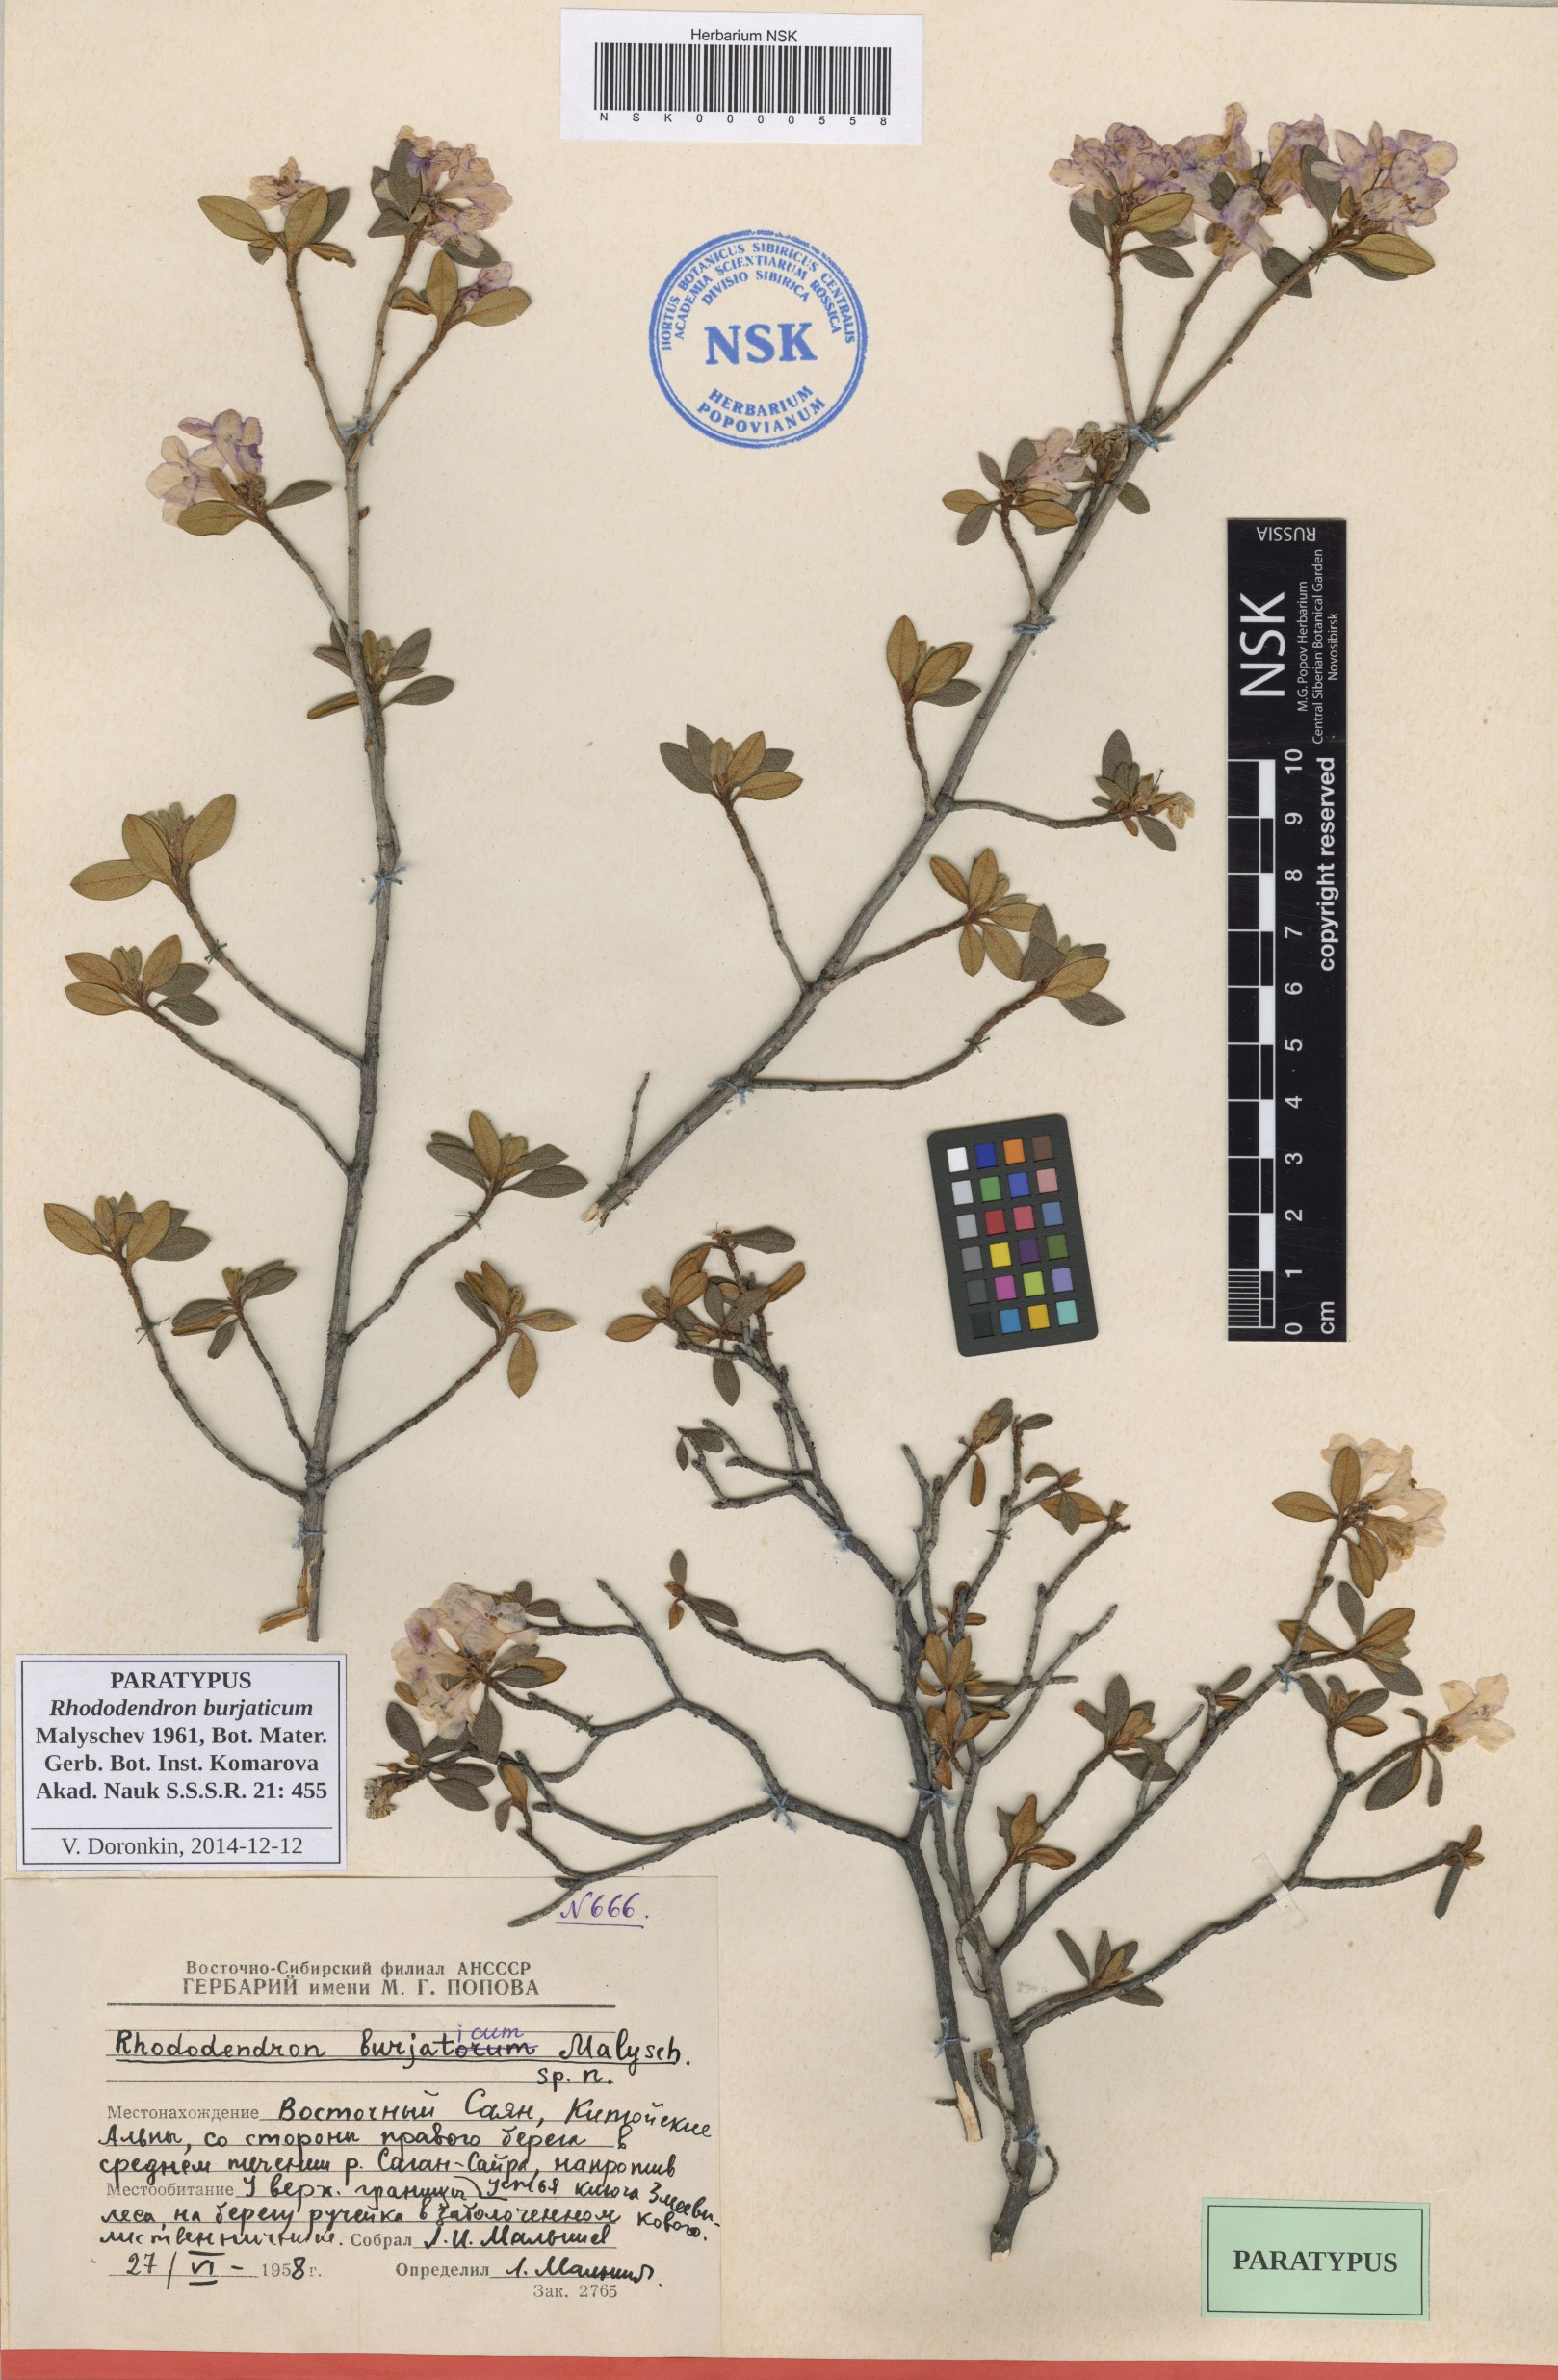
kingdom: Plantae
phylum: Tracheophyta
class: Magnoliopsida
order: Ericales
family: Ericaceae
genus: Rhododendron
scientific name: Rhododendron burjaticum
